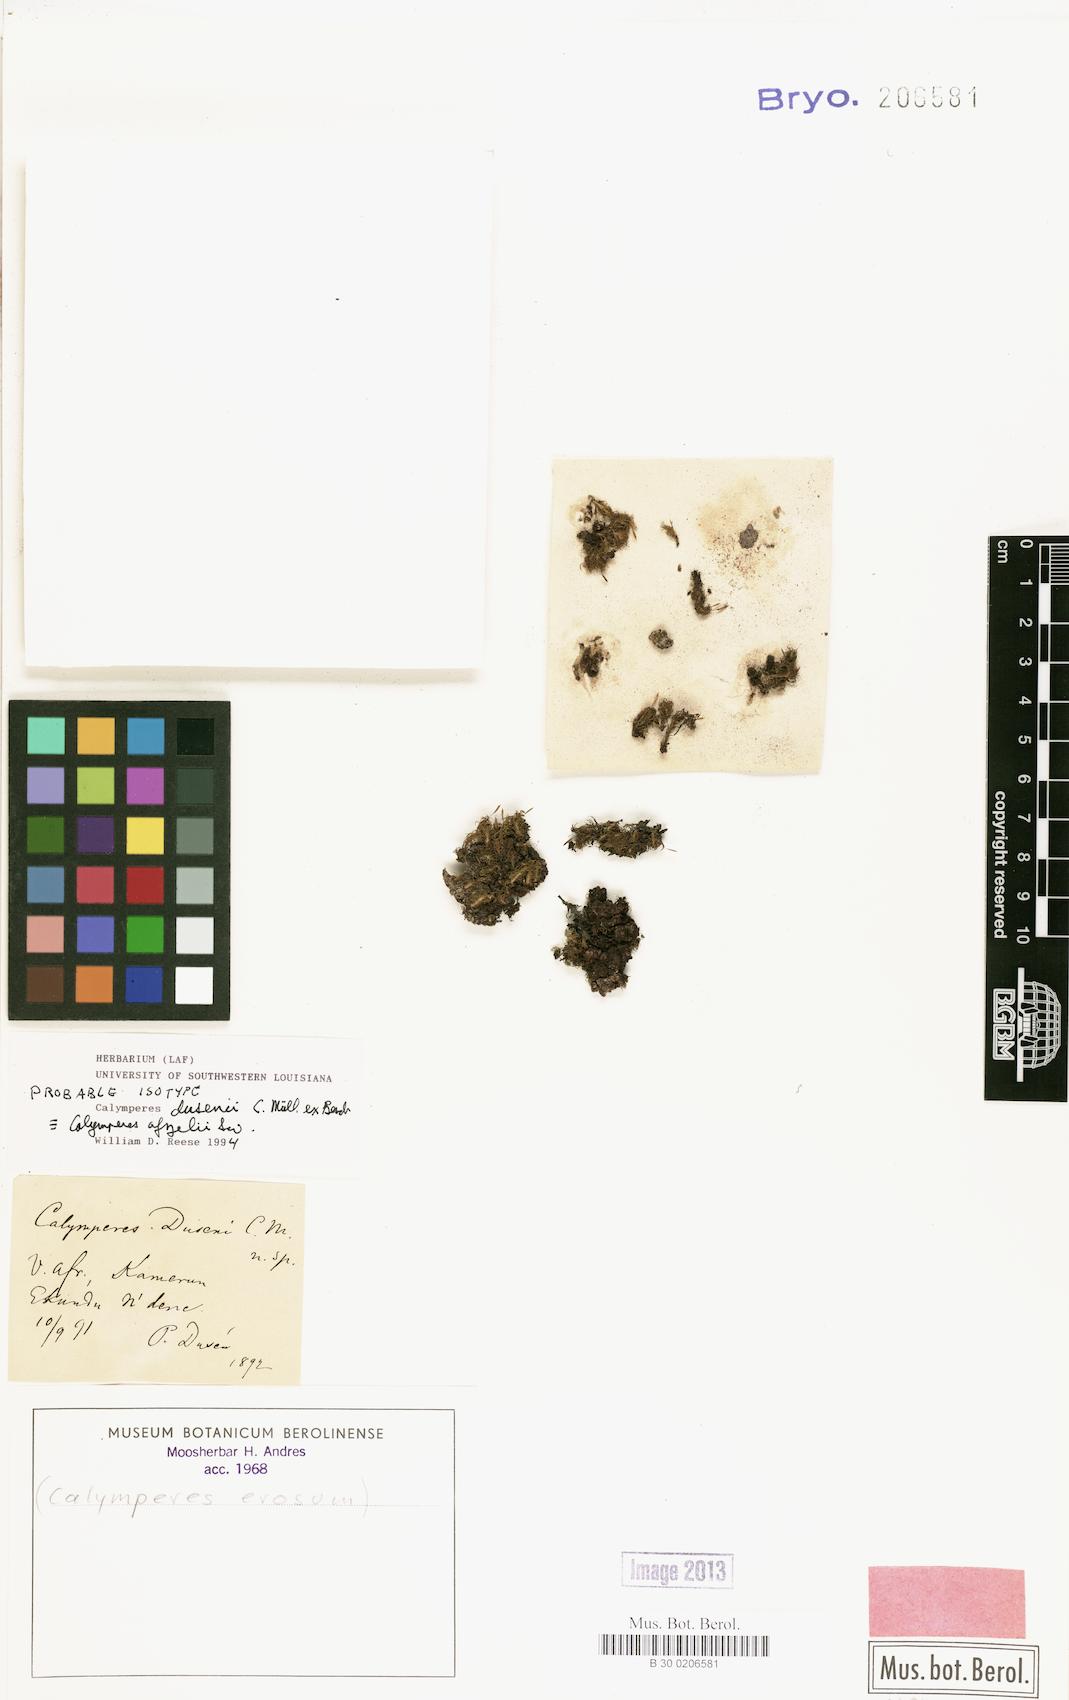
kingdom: Plantae
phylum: Bryophyta
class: Bryopsida
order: Dicranales
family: Calymperaceae
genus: Calymperes
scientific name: Calymperes afzelii
